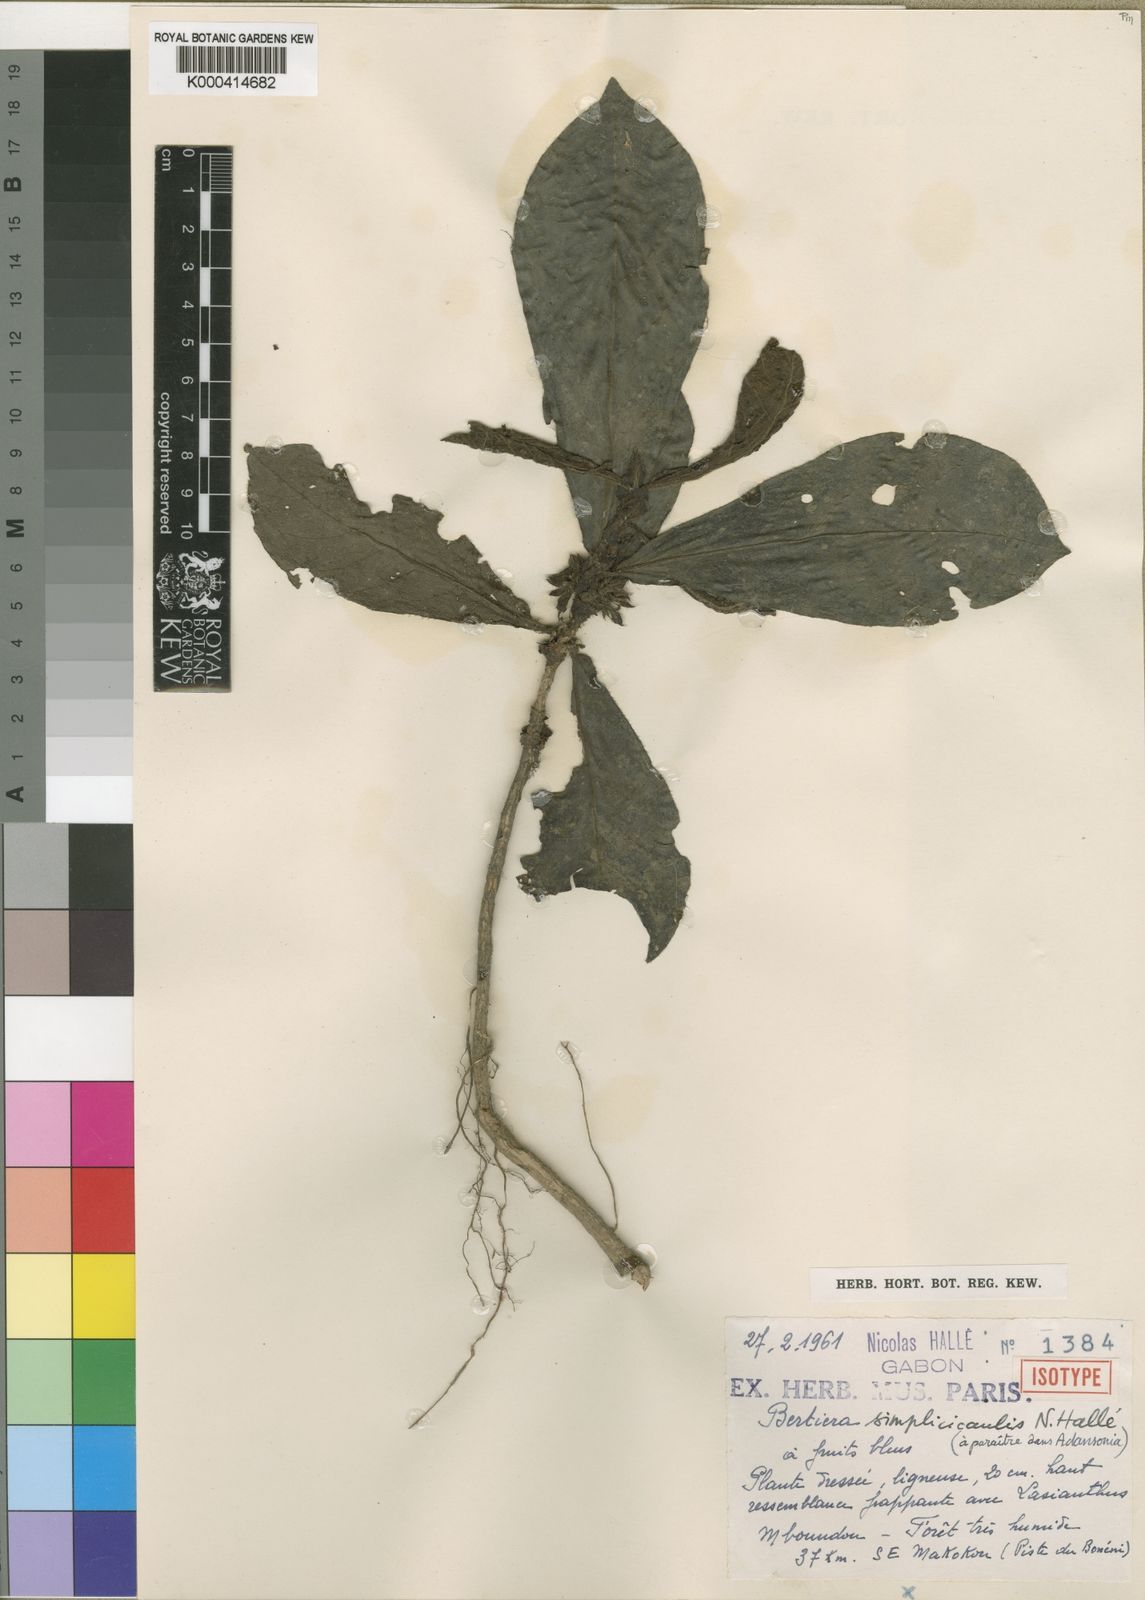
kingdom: Plantae
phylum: Tracheophyta
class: Magnoliopsida
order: Gentianales
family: Rubiaceae
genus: Bertiera
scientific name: Bertiera
